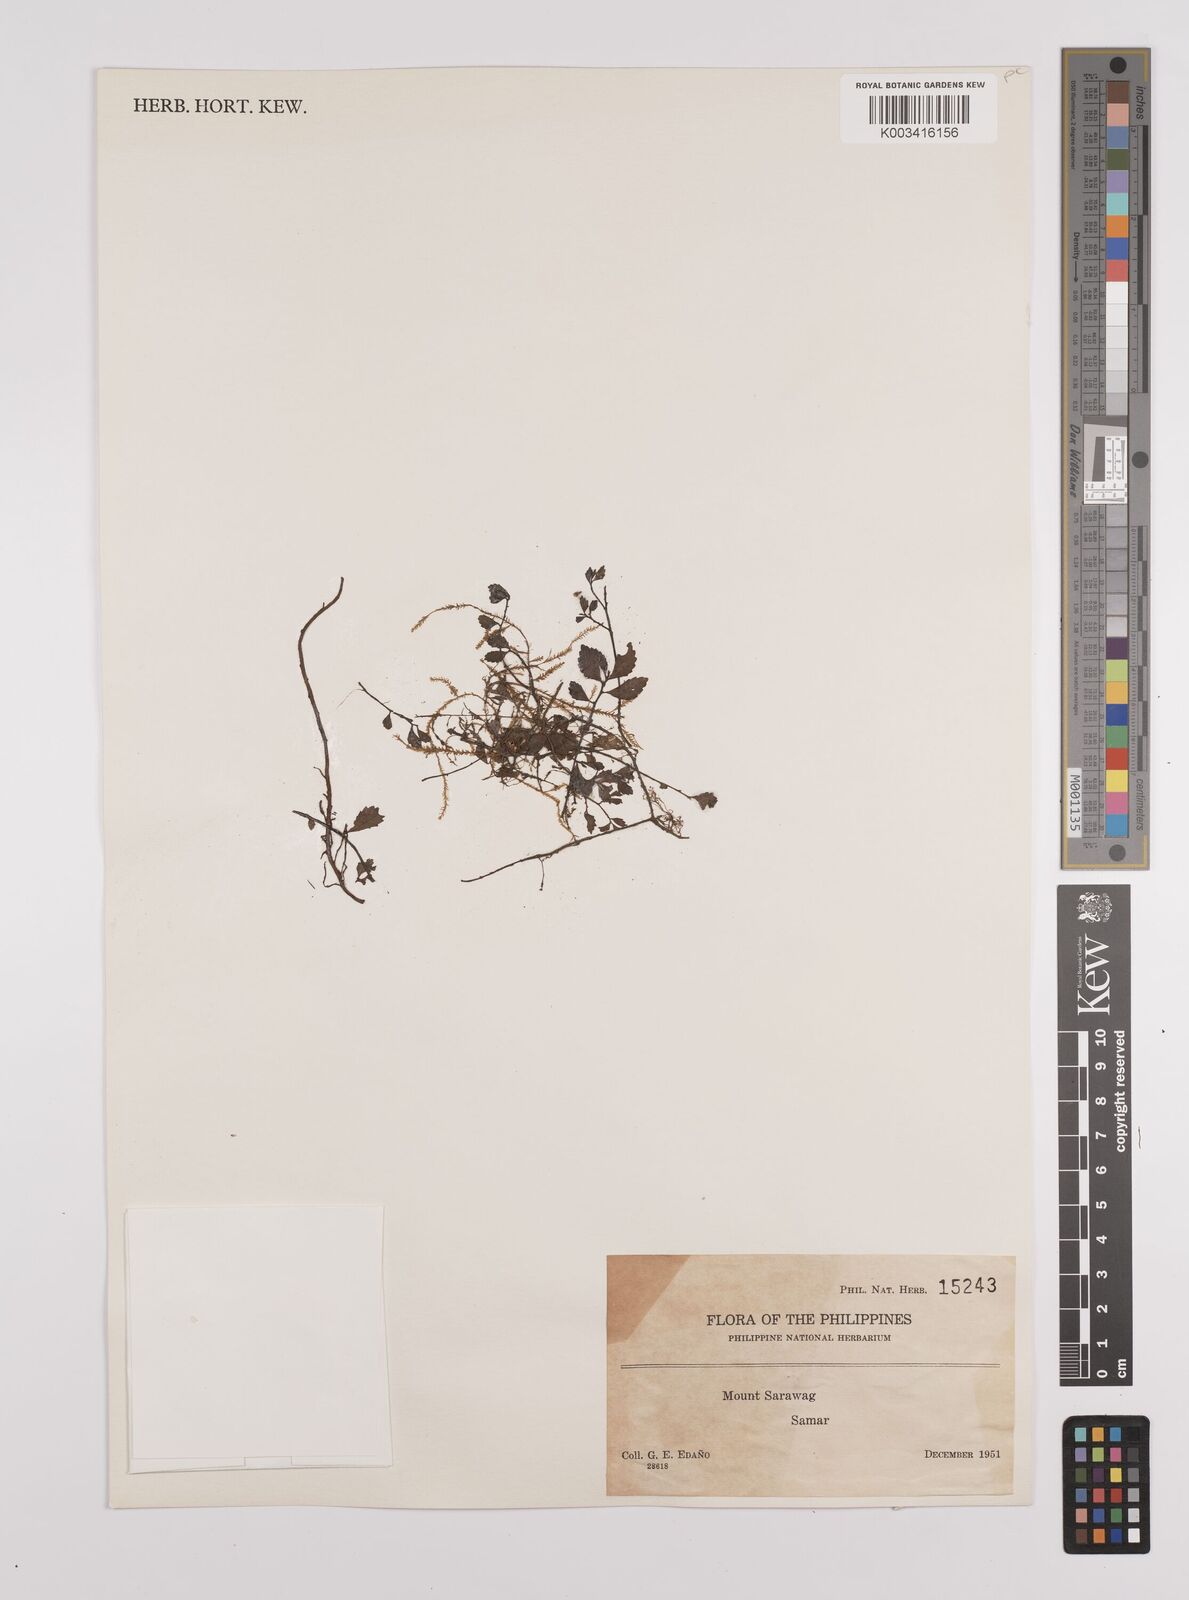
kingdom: Plantae
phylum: Tracheophyta
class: Magnoliopsida
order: Rosales
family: Urticaceae
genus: Elatostema
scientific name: Elatostema
